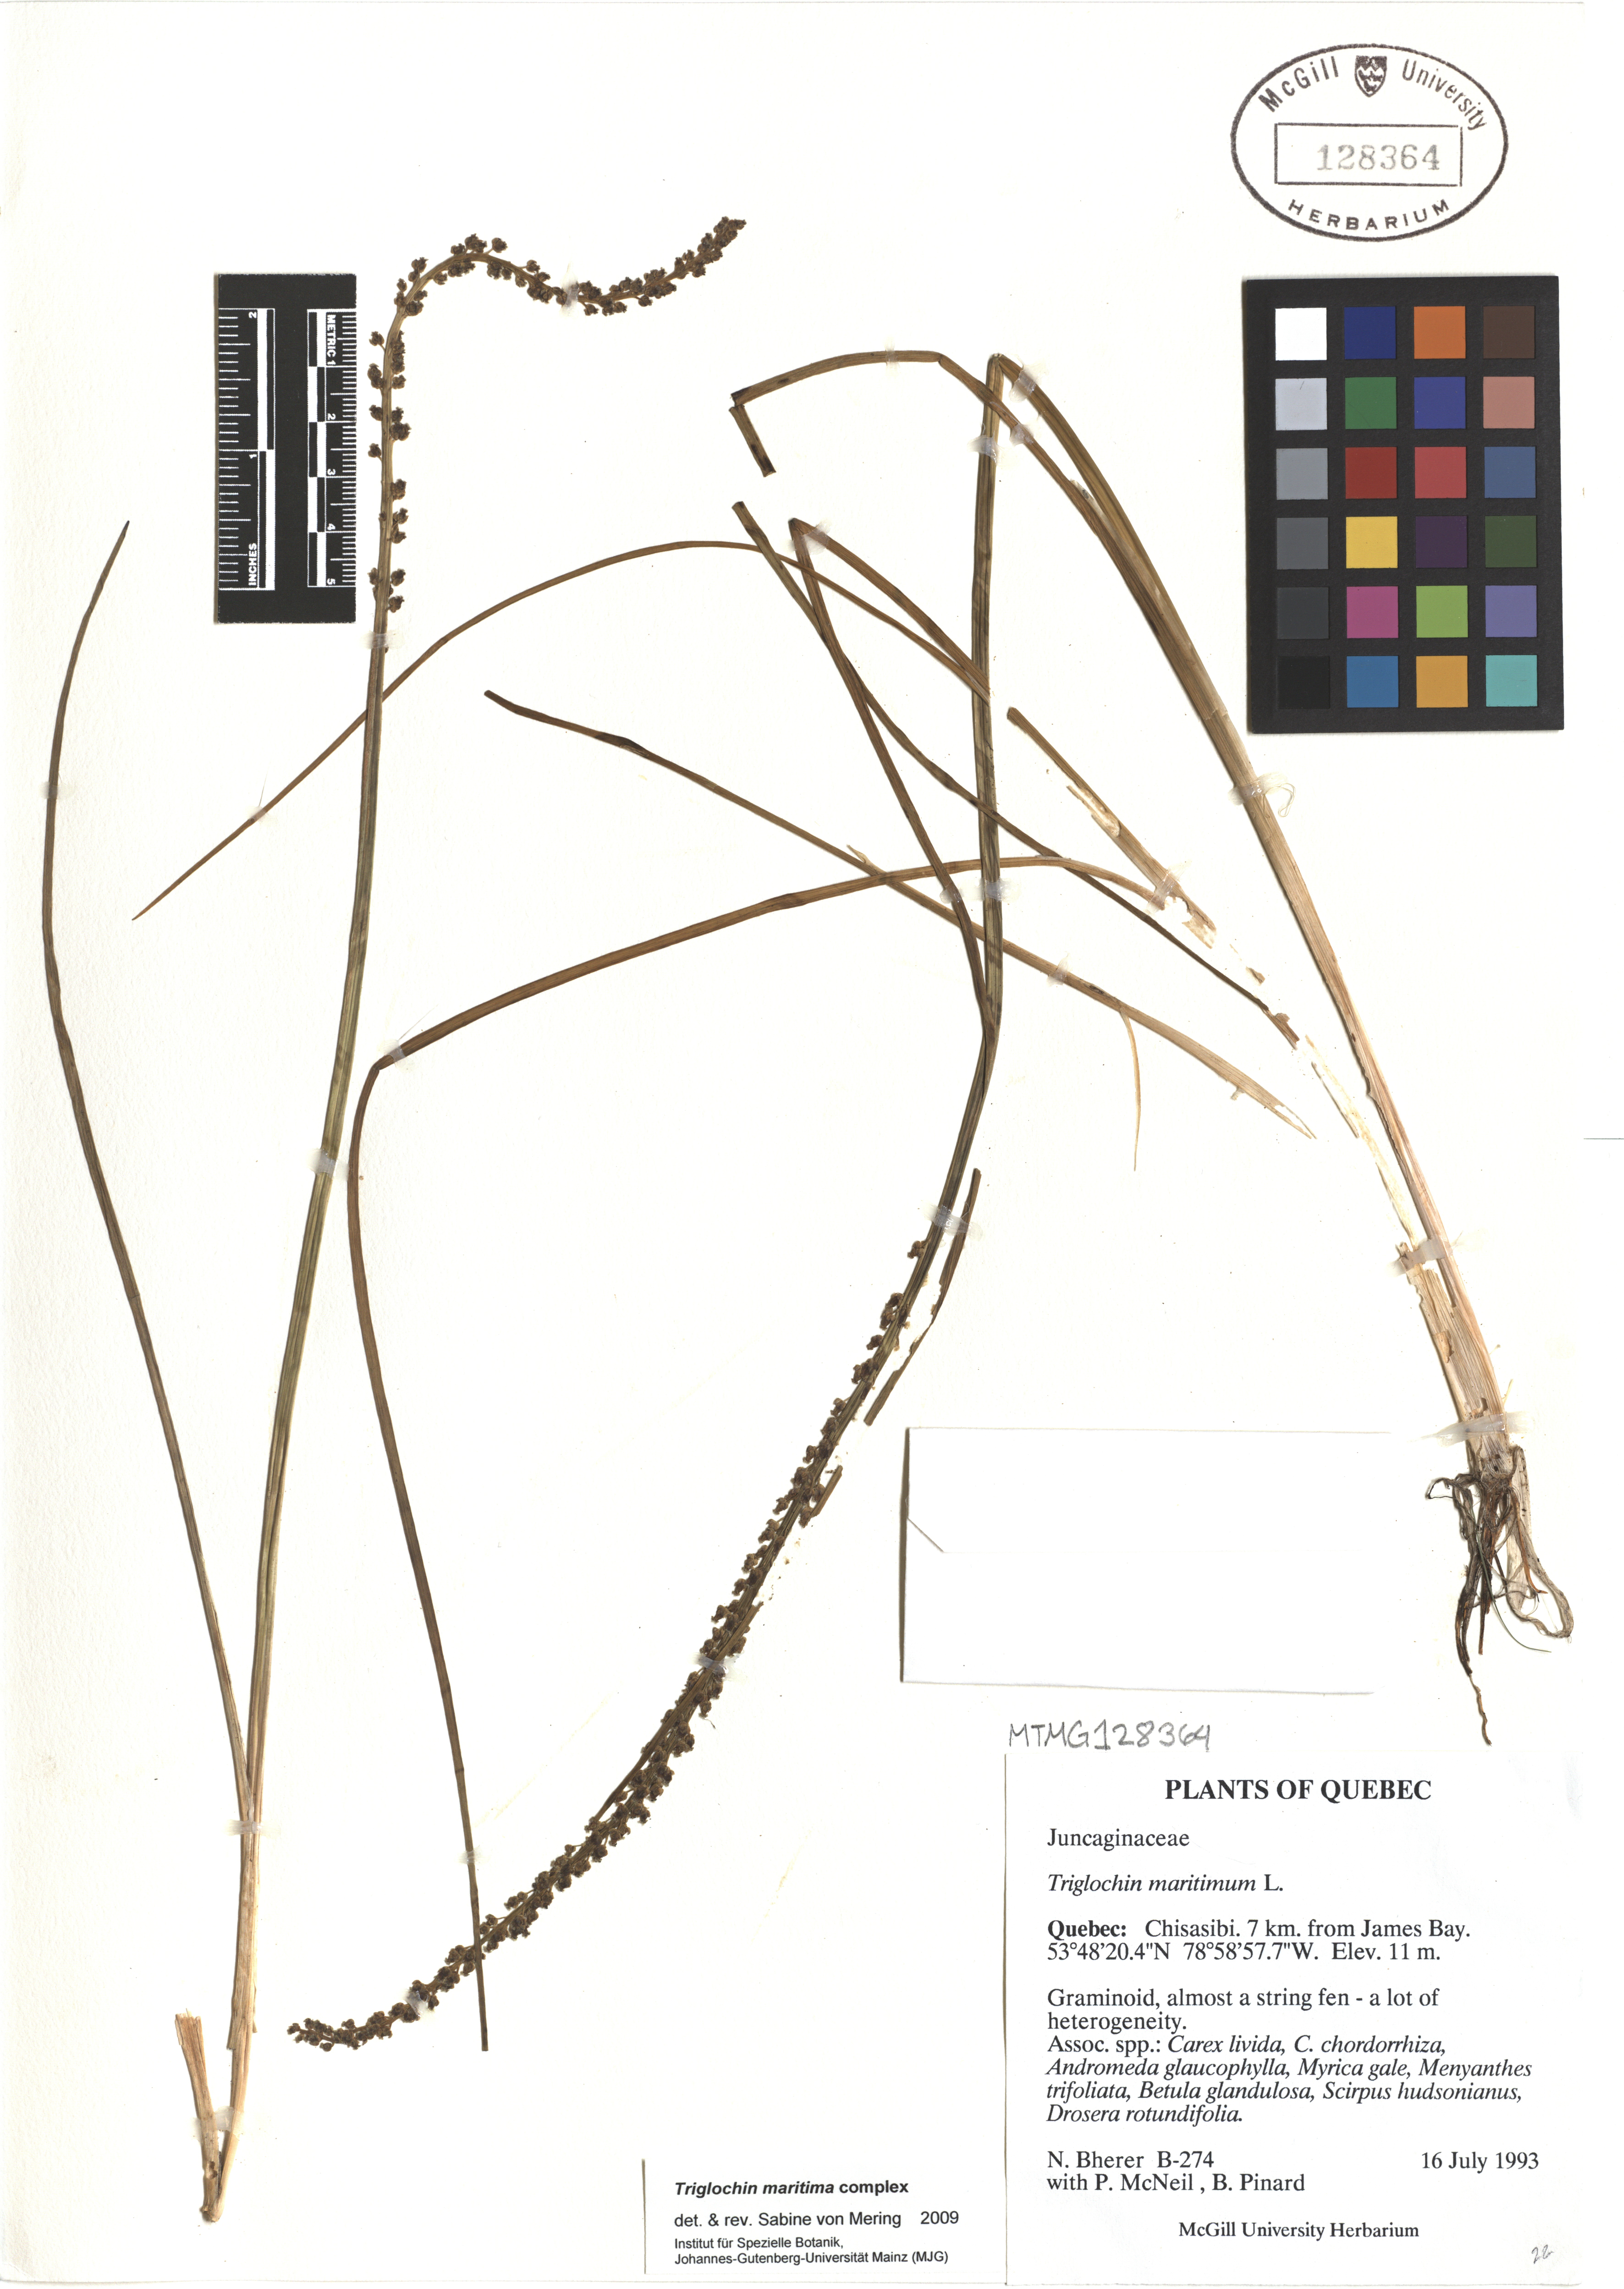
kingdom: Plantae
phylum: Tracheophyta
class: Liliopsida
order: Alismatales
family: Juncaginaceae
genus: Triglochin
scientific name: Triglochin maritima
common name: Sea arrowgrass
